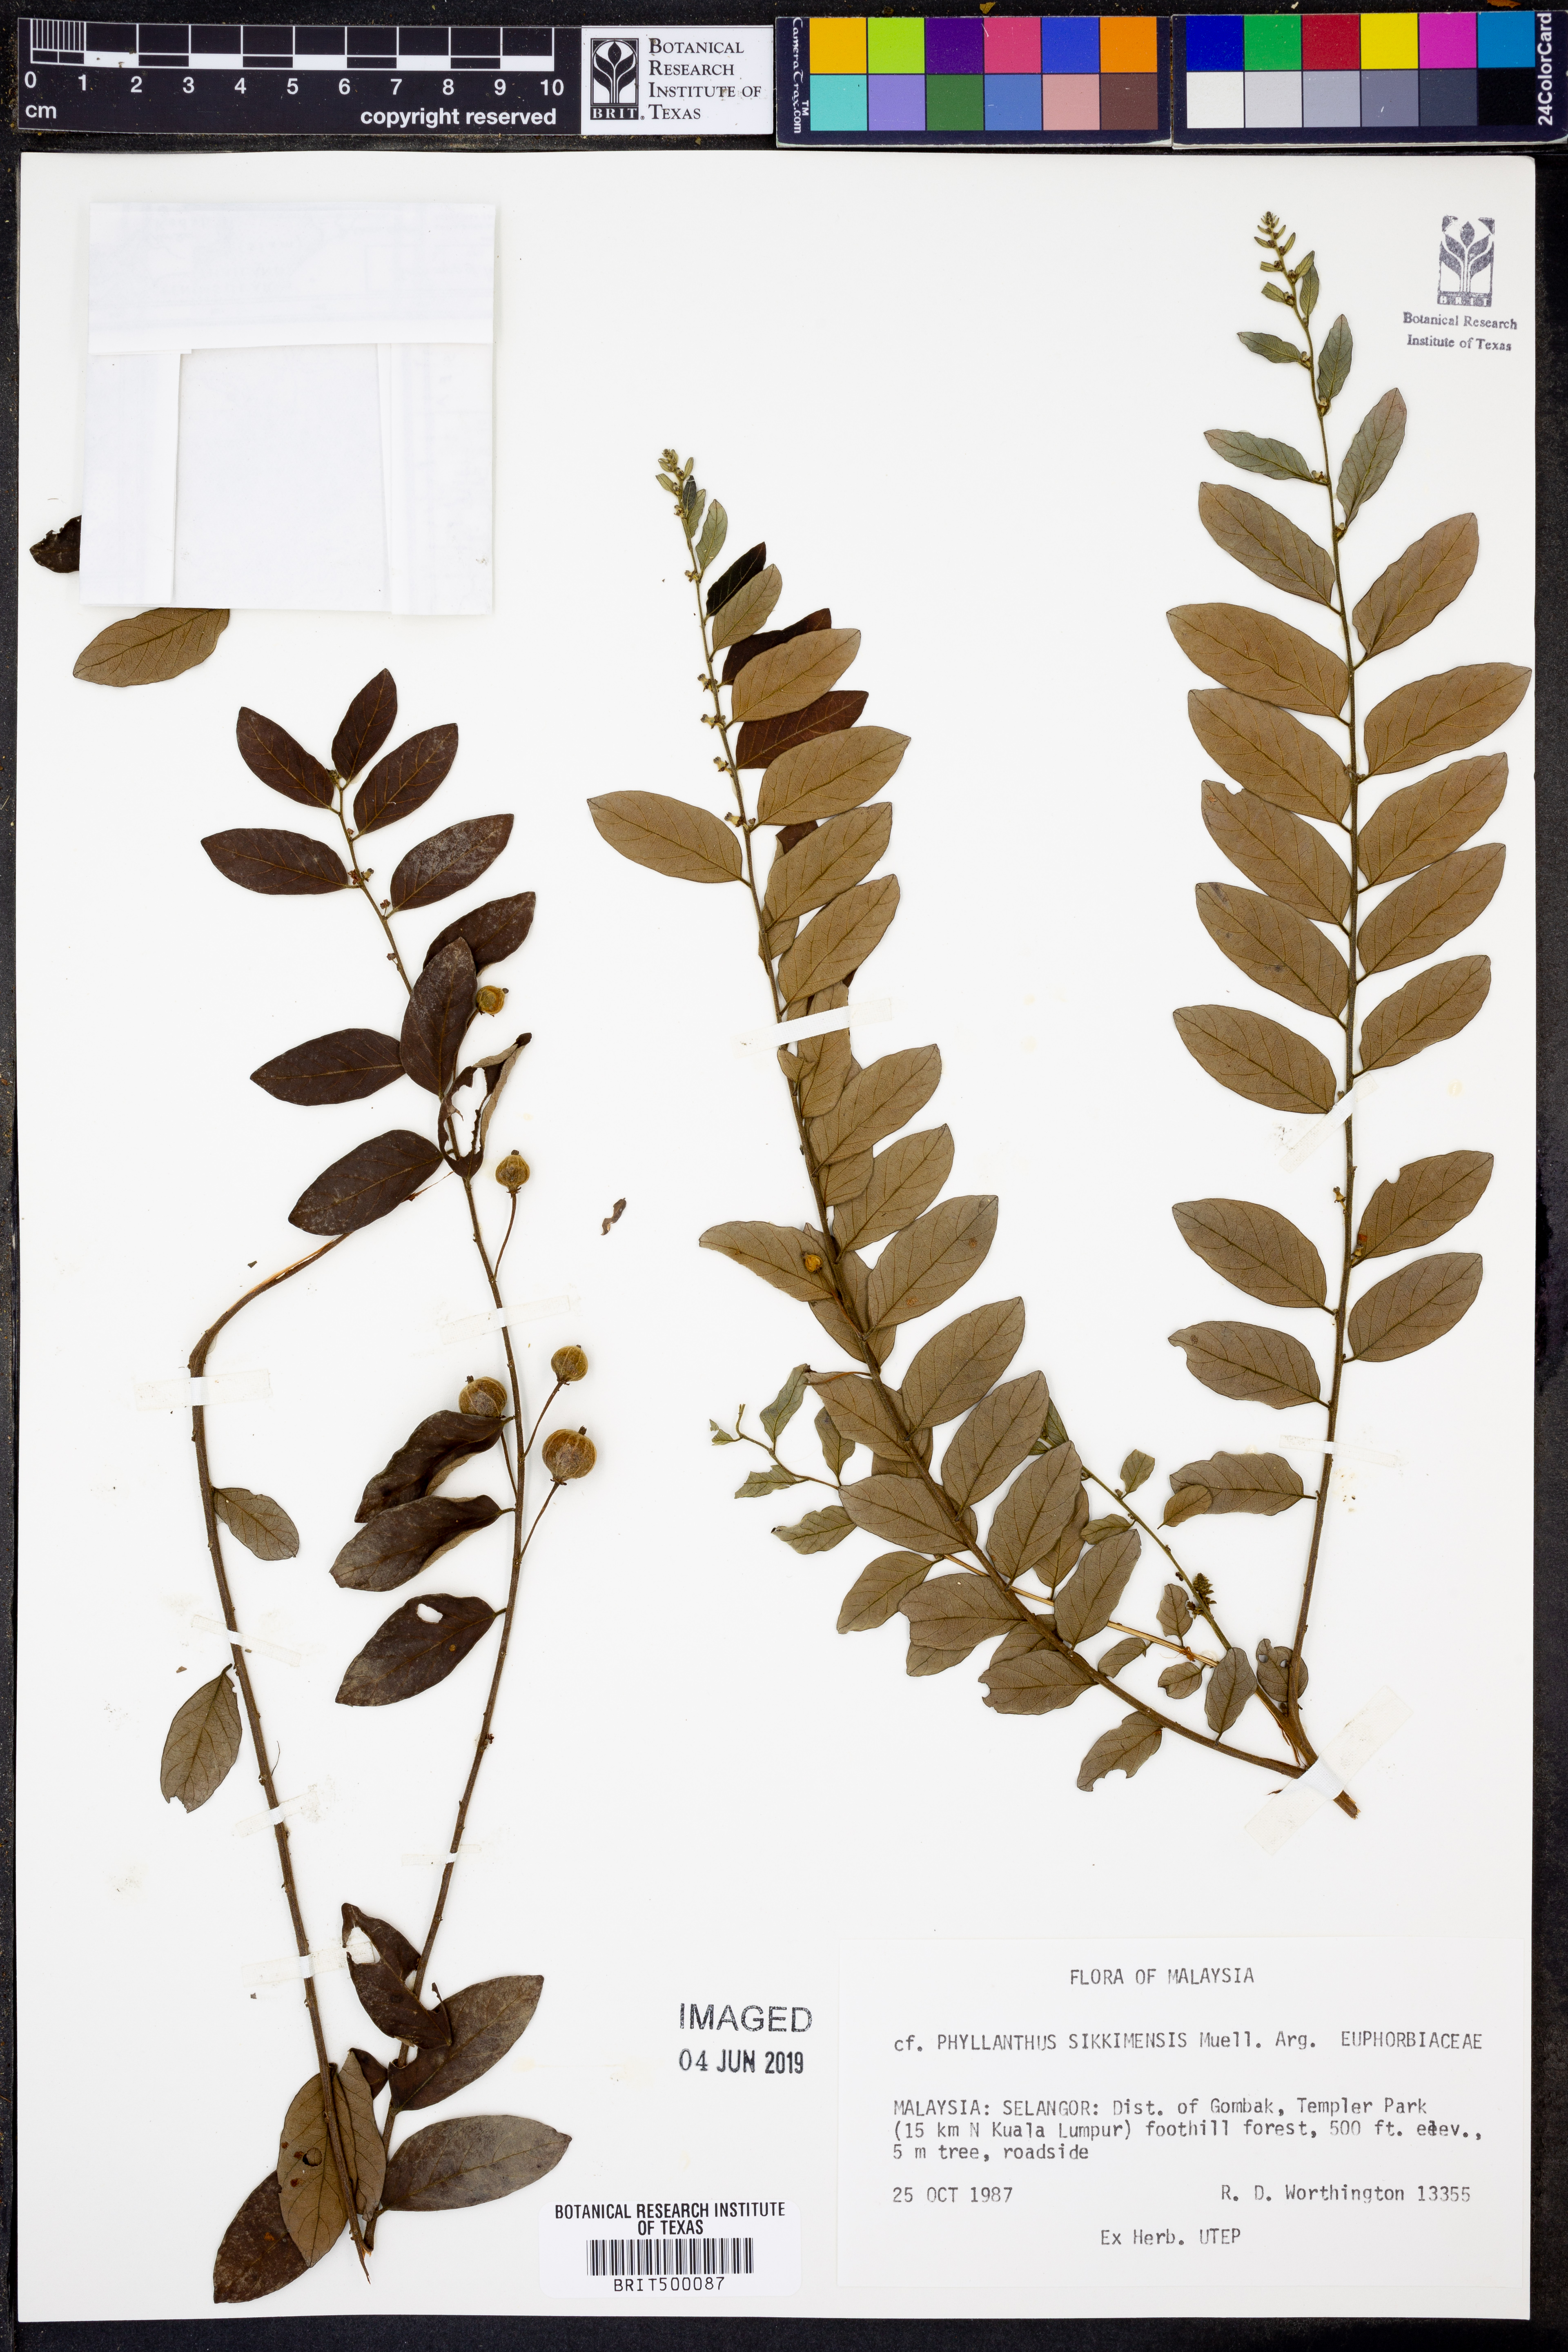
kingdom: Plantae
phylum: Tracheophyta
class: Magnoliopsida
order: Malpighiales
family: Phyllanthaceae
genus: Phyllanthus
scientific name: Phyllanthus sikkimensis
